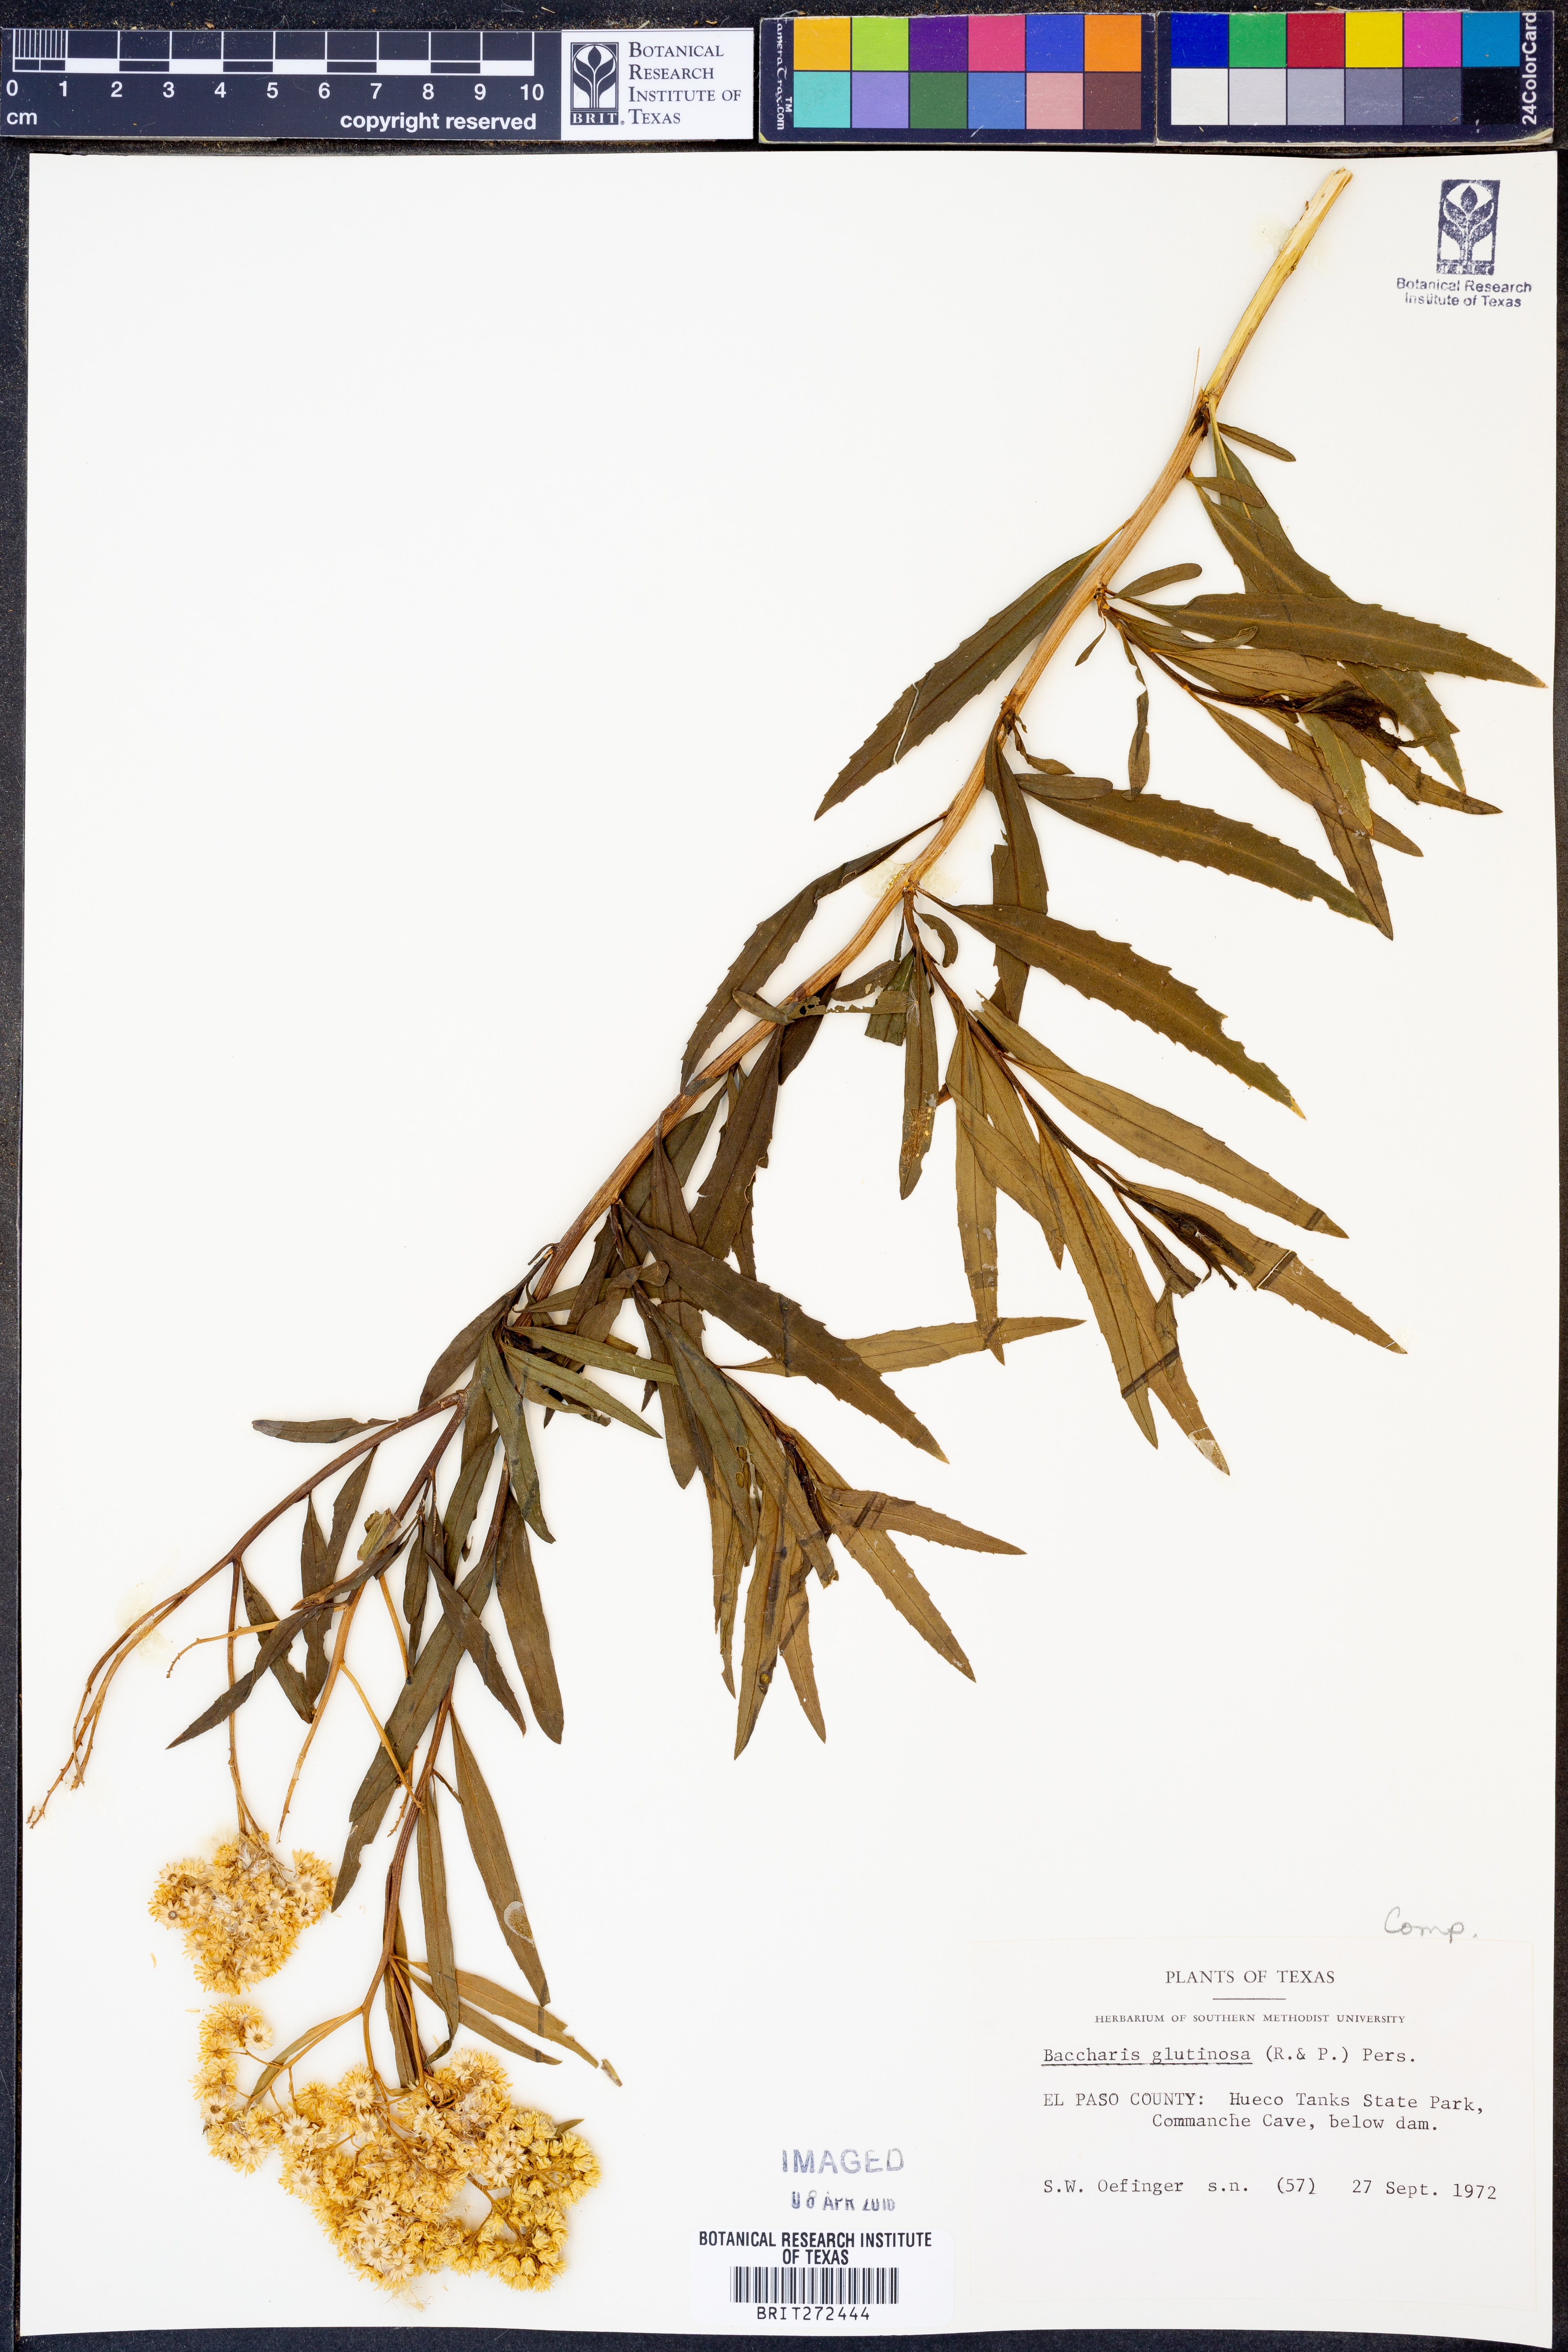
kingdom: Plantae
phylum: Tracheophyta
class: Magnoliopsida
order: Asterales
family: Asteraceae
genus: Baccharis
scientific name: Baccharis glutinosa
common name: Saltmarsh baccharis
